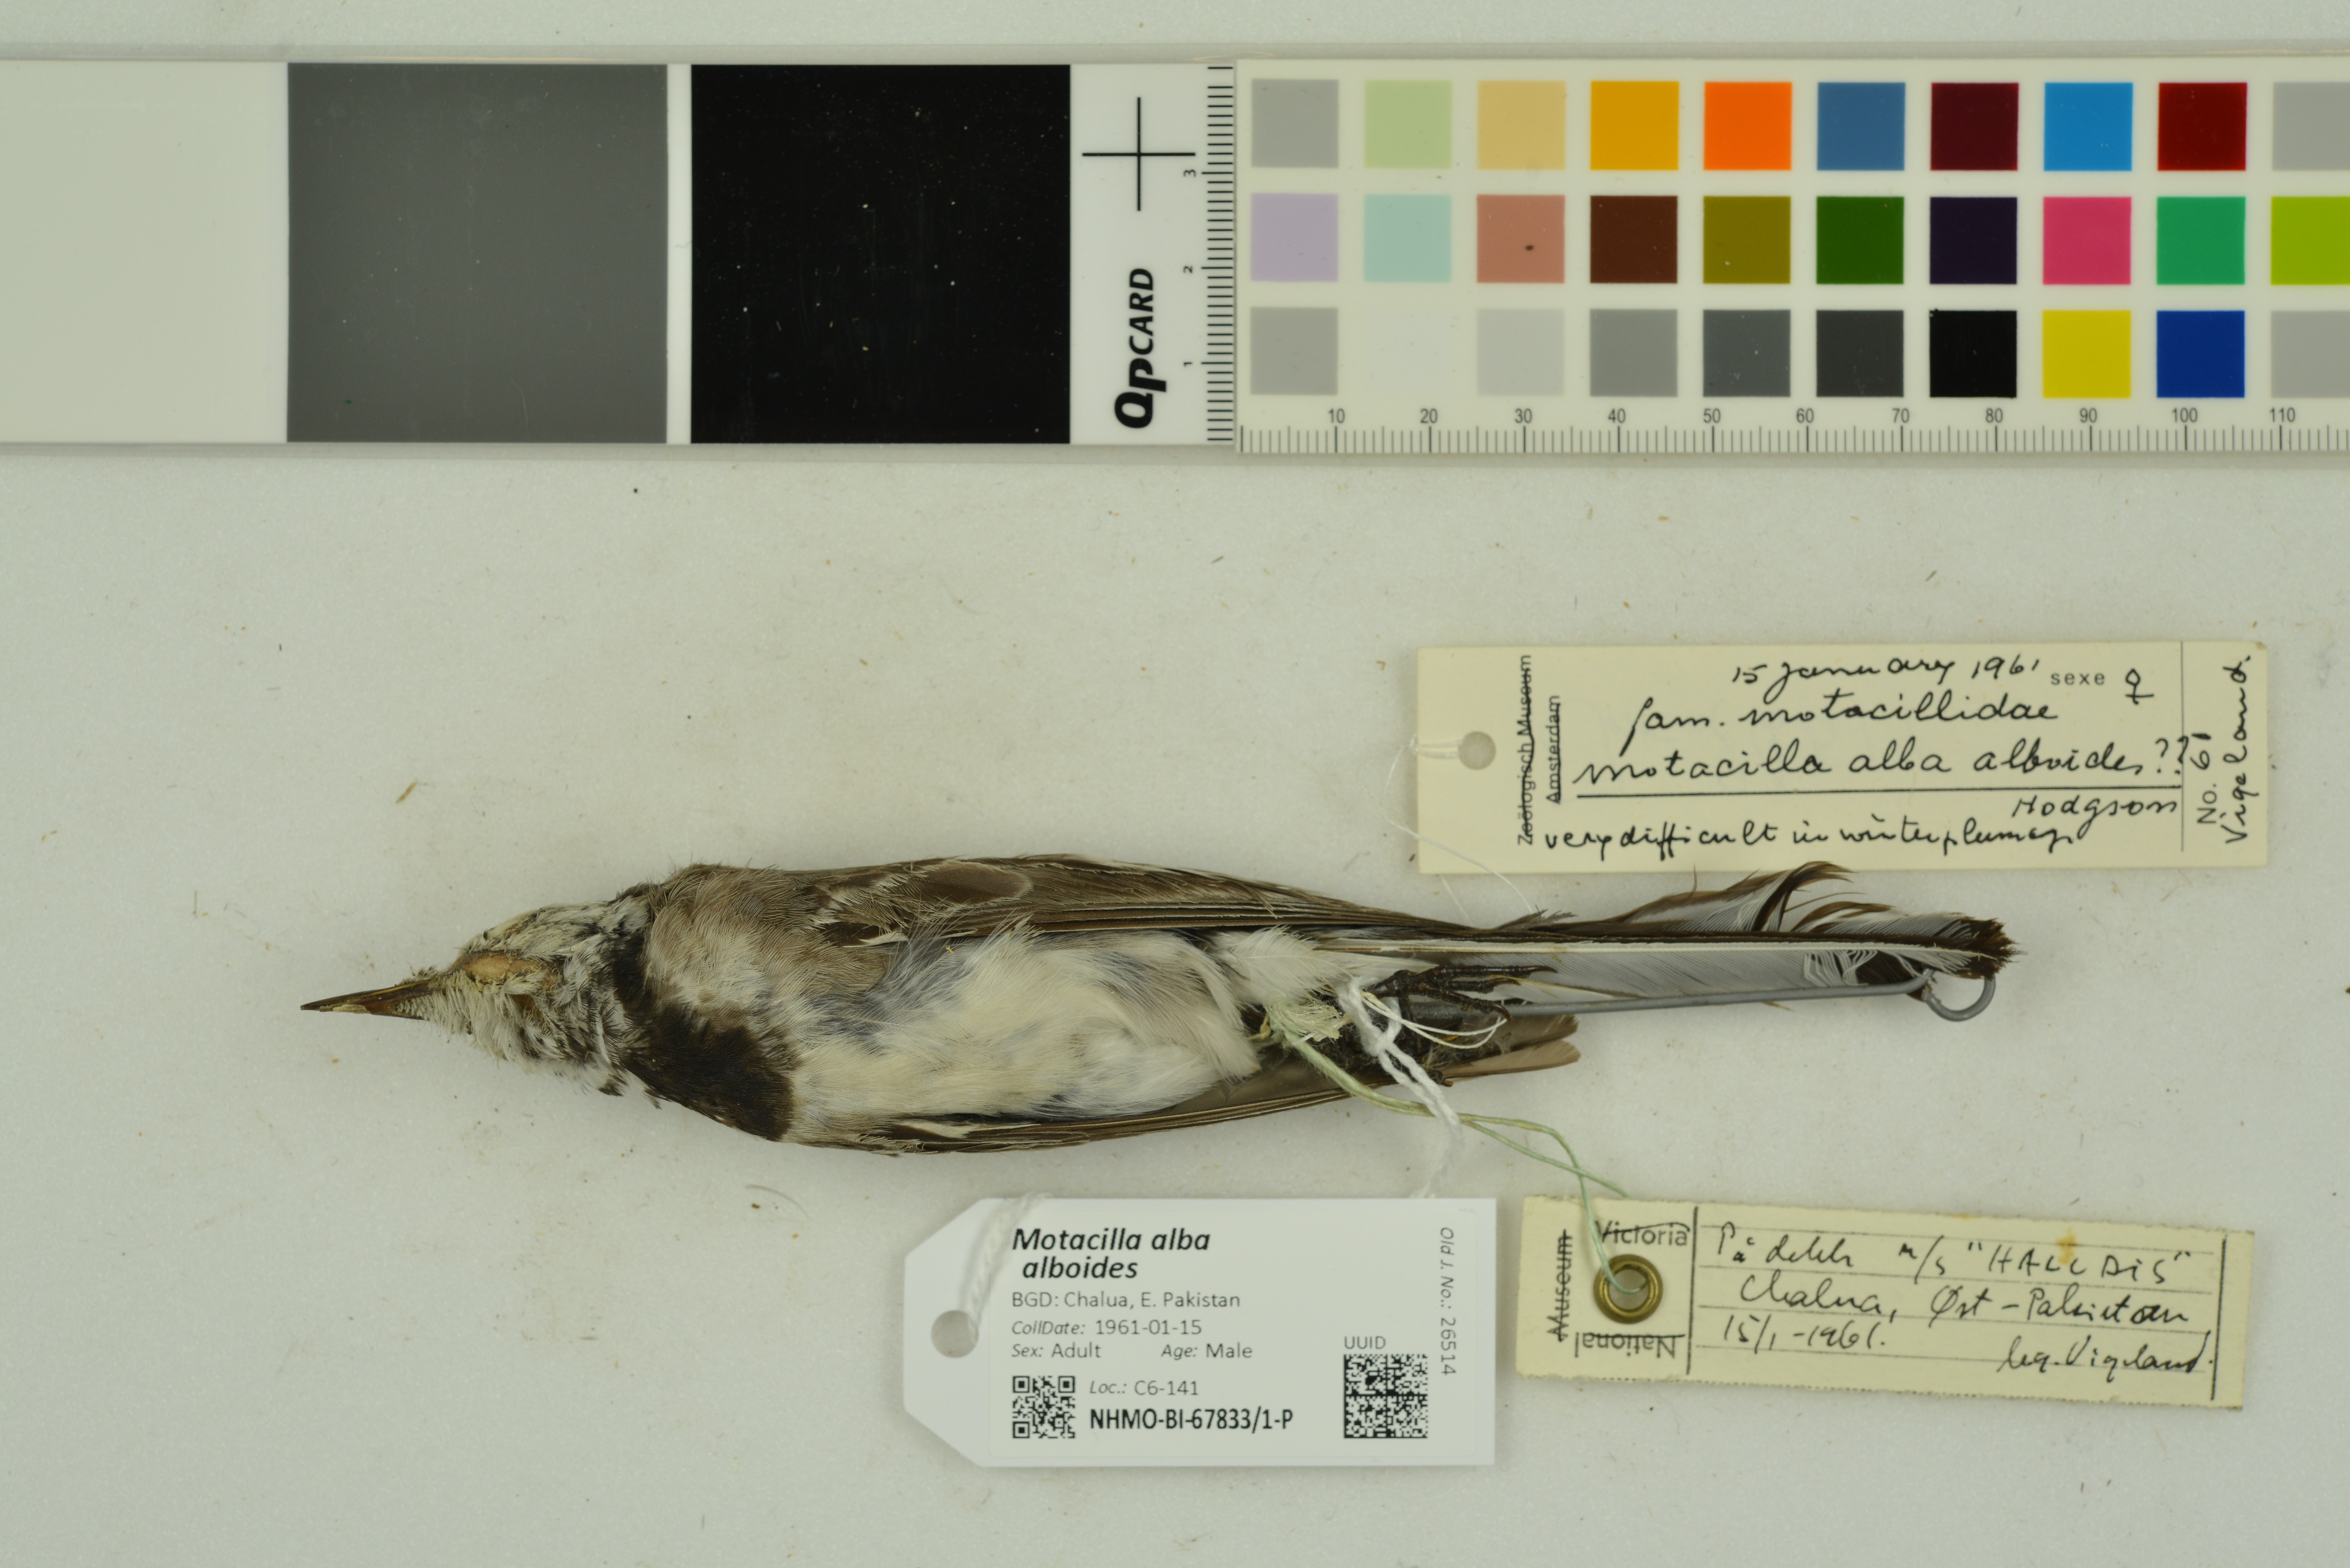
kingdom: Animalia
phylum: Chordata
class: Aves
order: Passeriformes
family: Motacillidae
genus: Motacilla
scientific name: Motacilla alba
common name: White wagtail
